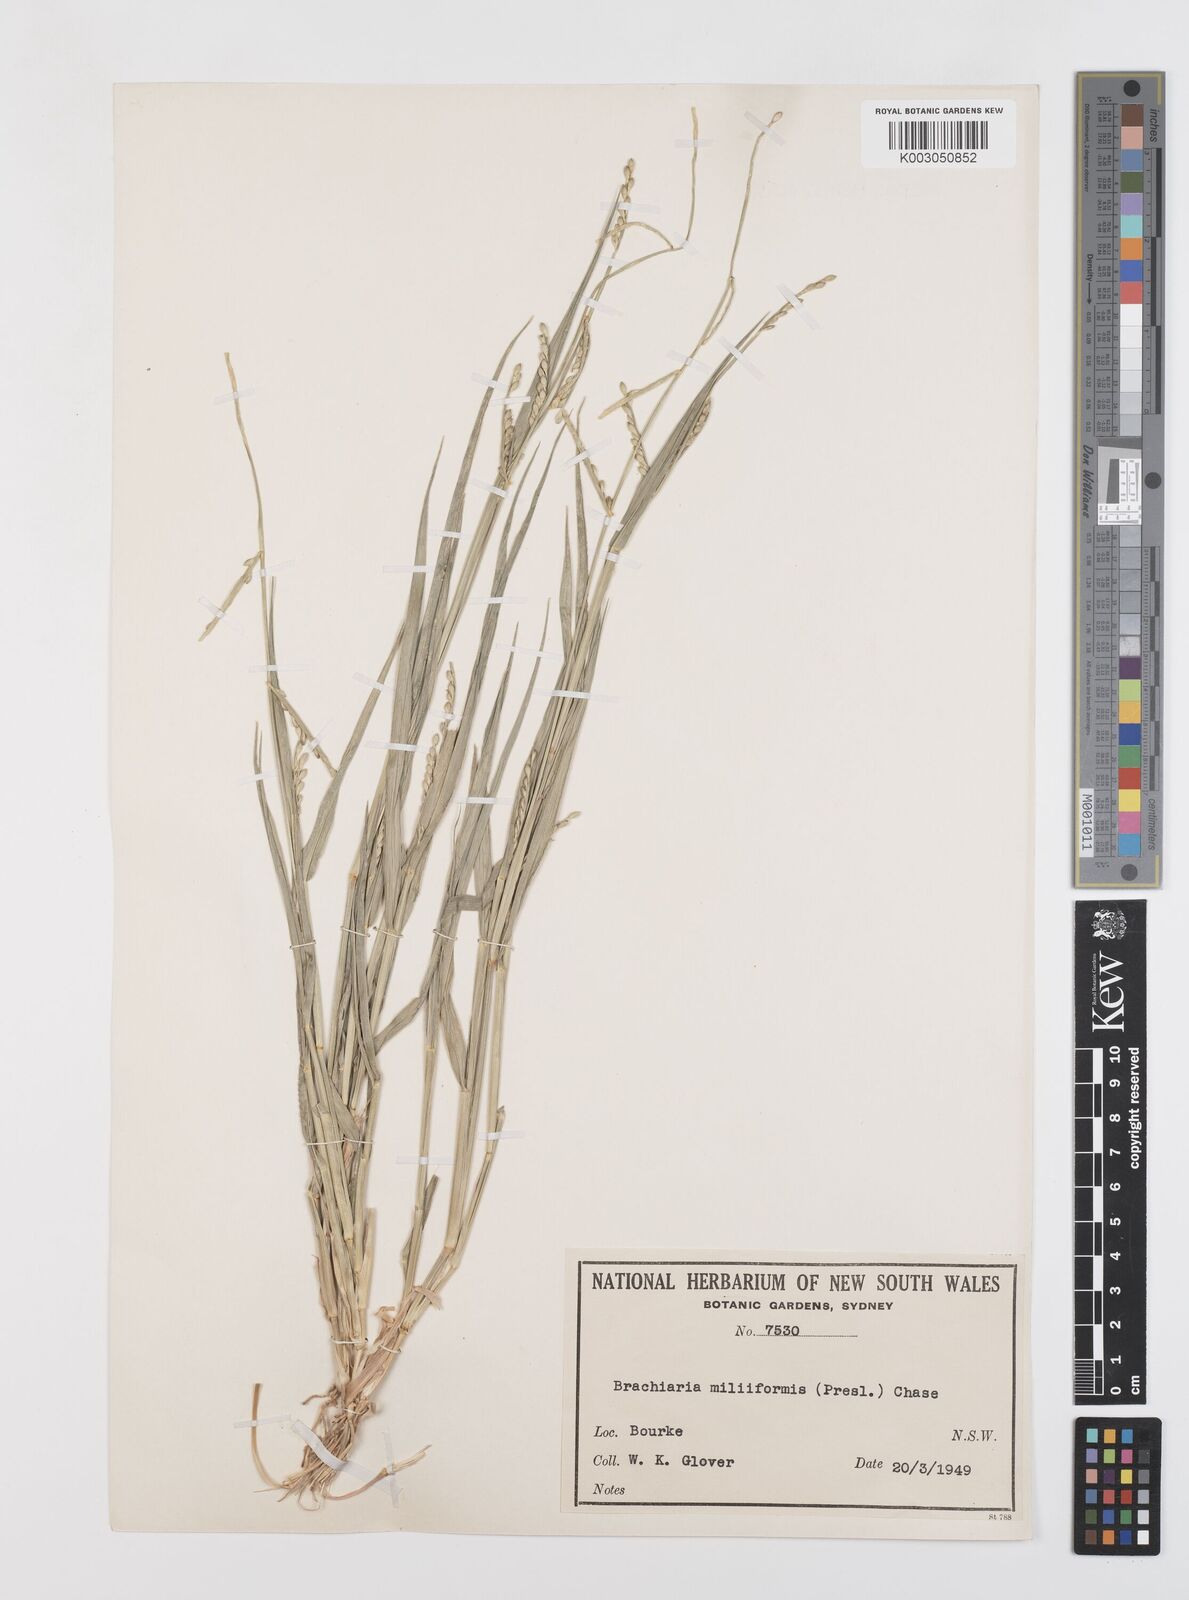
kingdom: Plantae
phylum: Tracheophyta
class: Liliopsida
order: Poales
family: Poaceae
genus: Urochloa
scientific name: Urochloa subquadripara
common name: Armgrass millet
